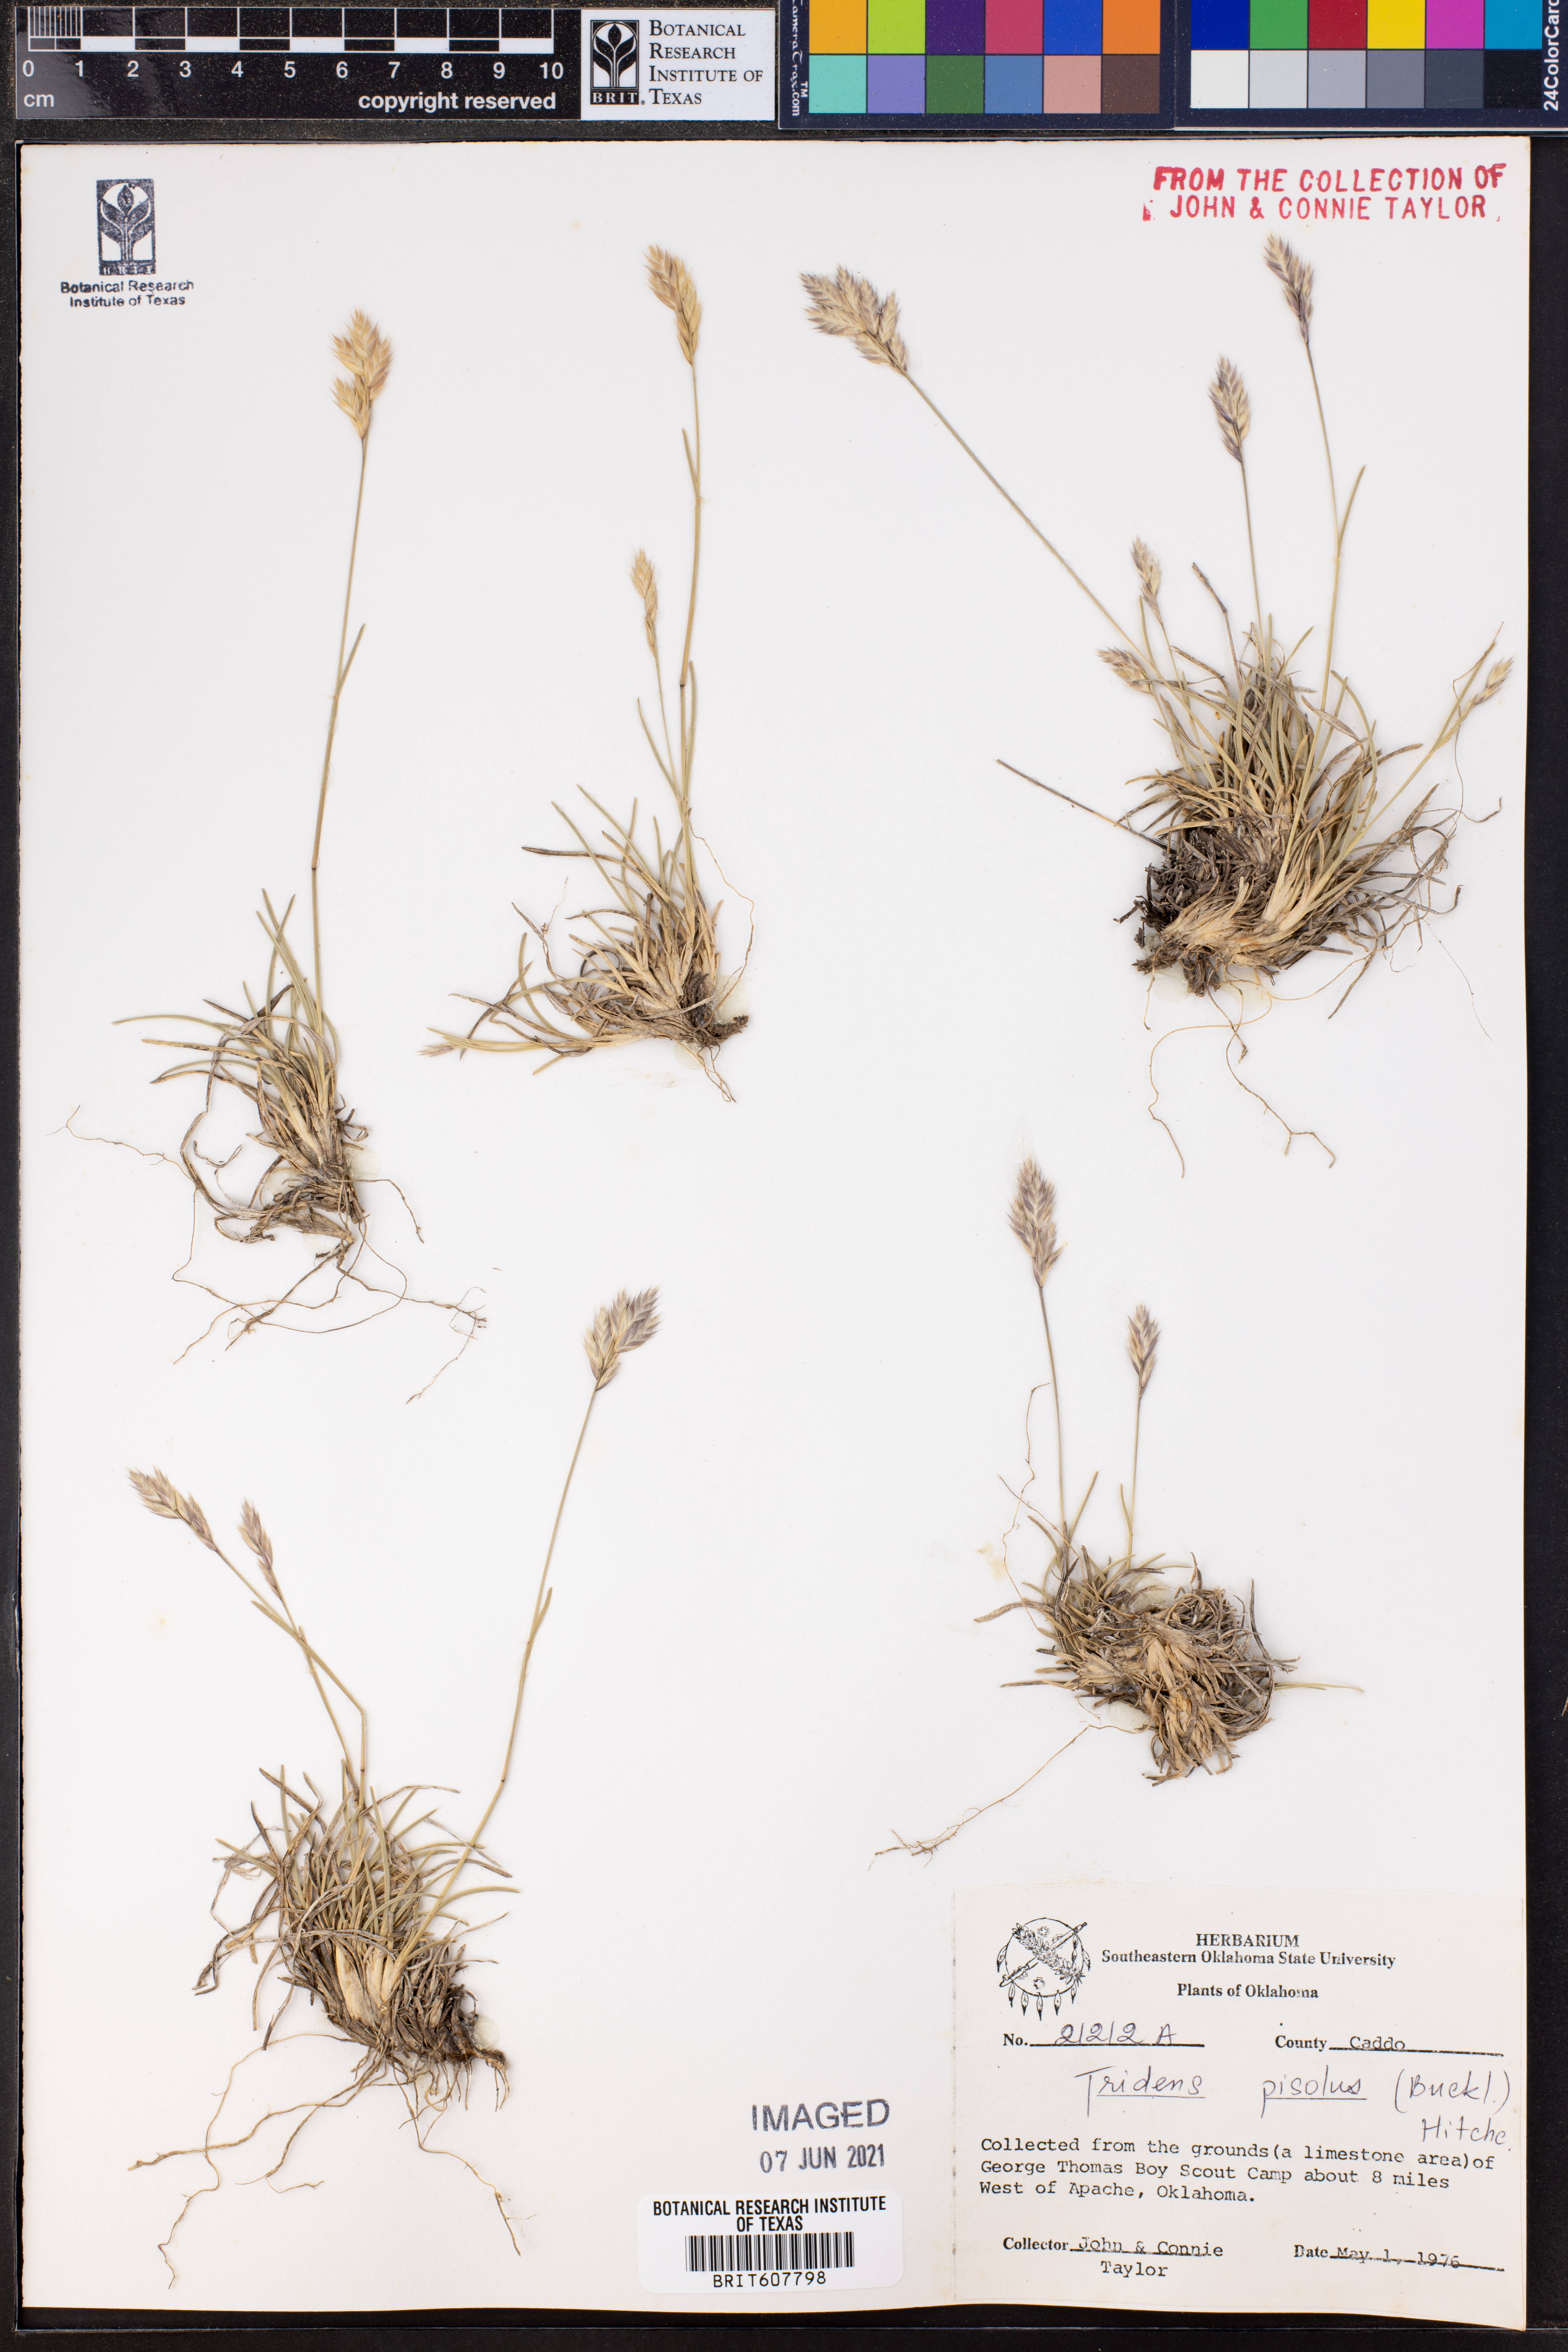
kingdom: Plantae
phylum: Tracheophyta
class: Liliopsida
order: Poales
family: Poaceae
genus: Tridentopsis
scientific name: Tridentopsis mutica
